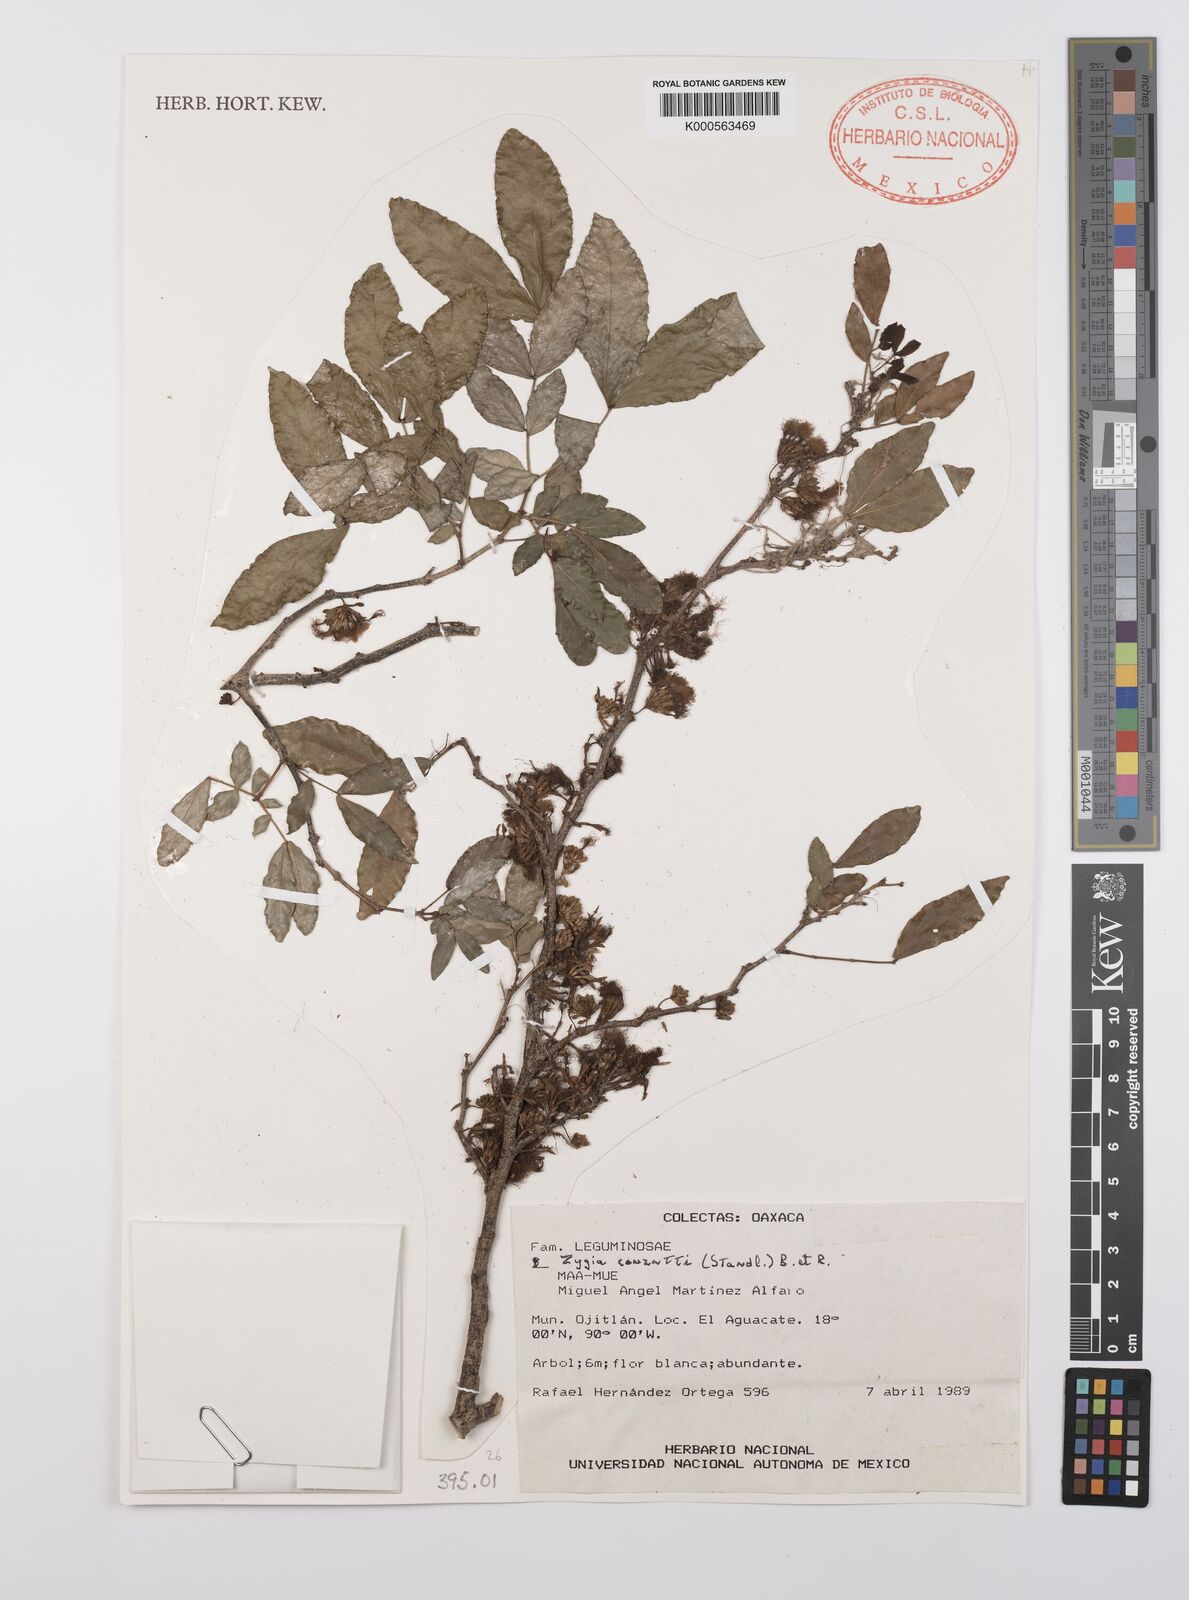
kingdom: Plantae
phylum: Tracheophyta
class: Magnoliopsida
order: Fabales
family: Fabaceae
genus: Zygia
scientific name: Zygia conzattii
